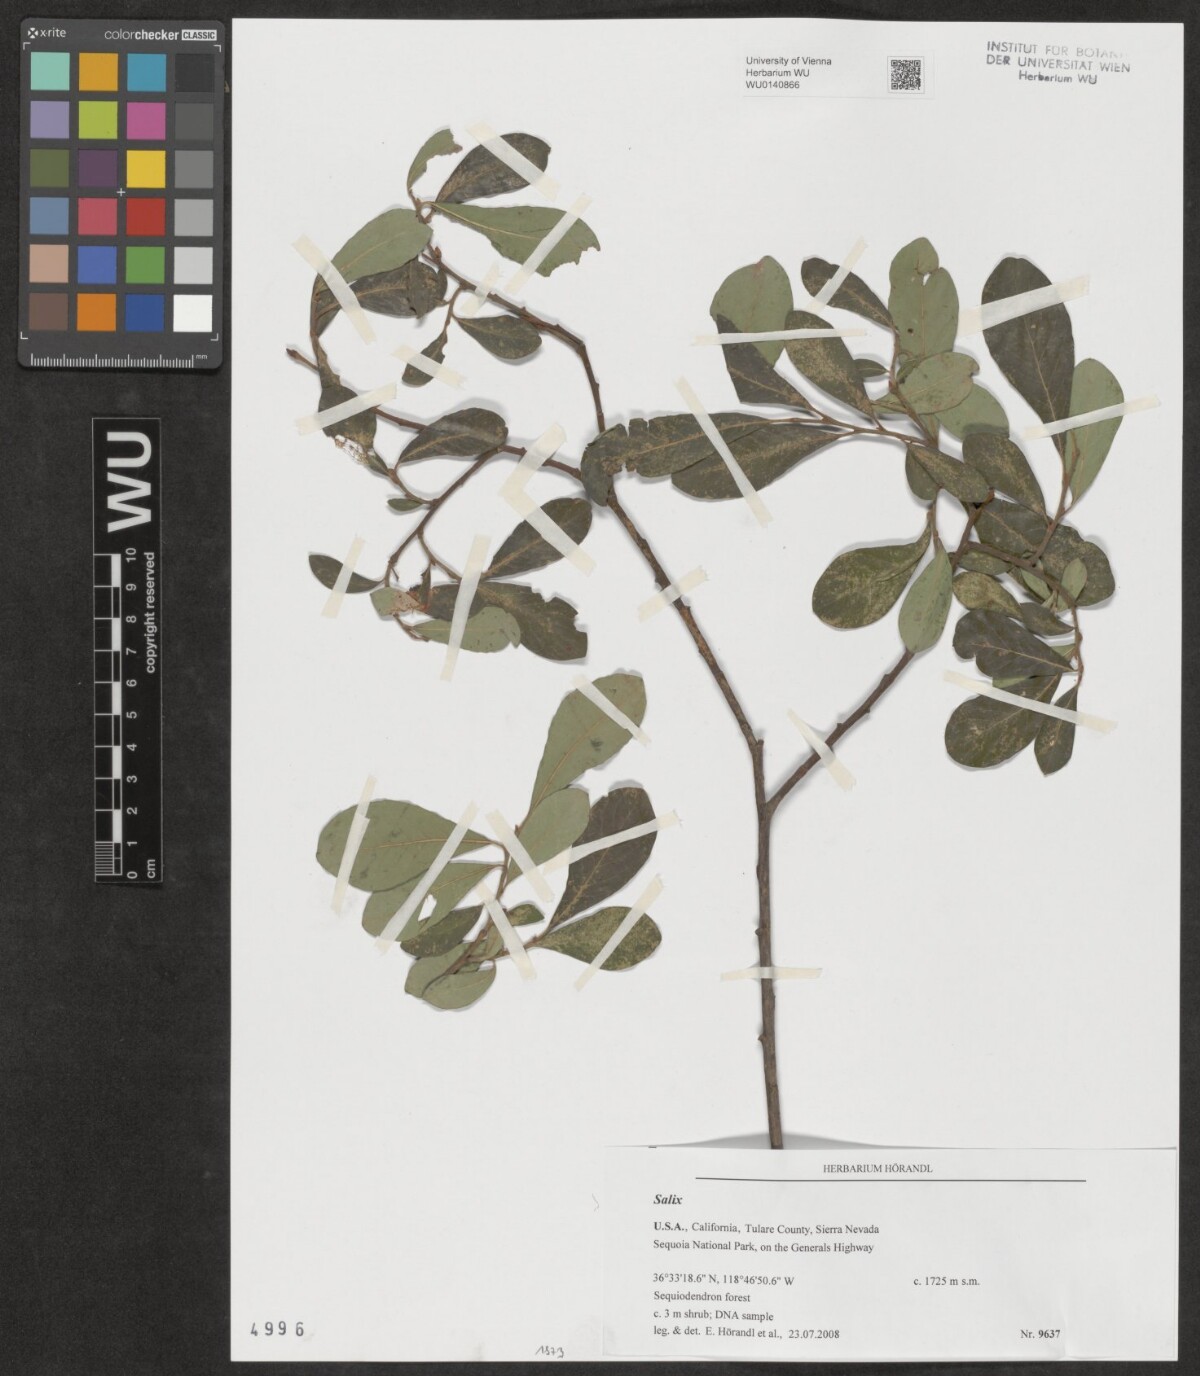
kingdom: Plantae
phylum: Tracheophyta
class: Magnoliopsida
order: Malpighiales
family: Salicaceae
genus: Salix
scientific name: Salix
